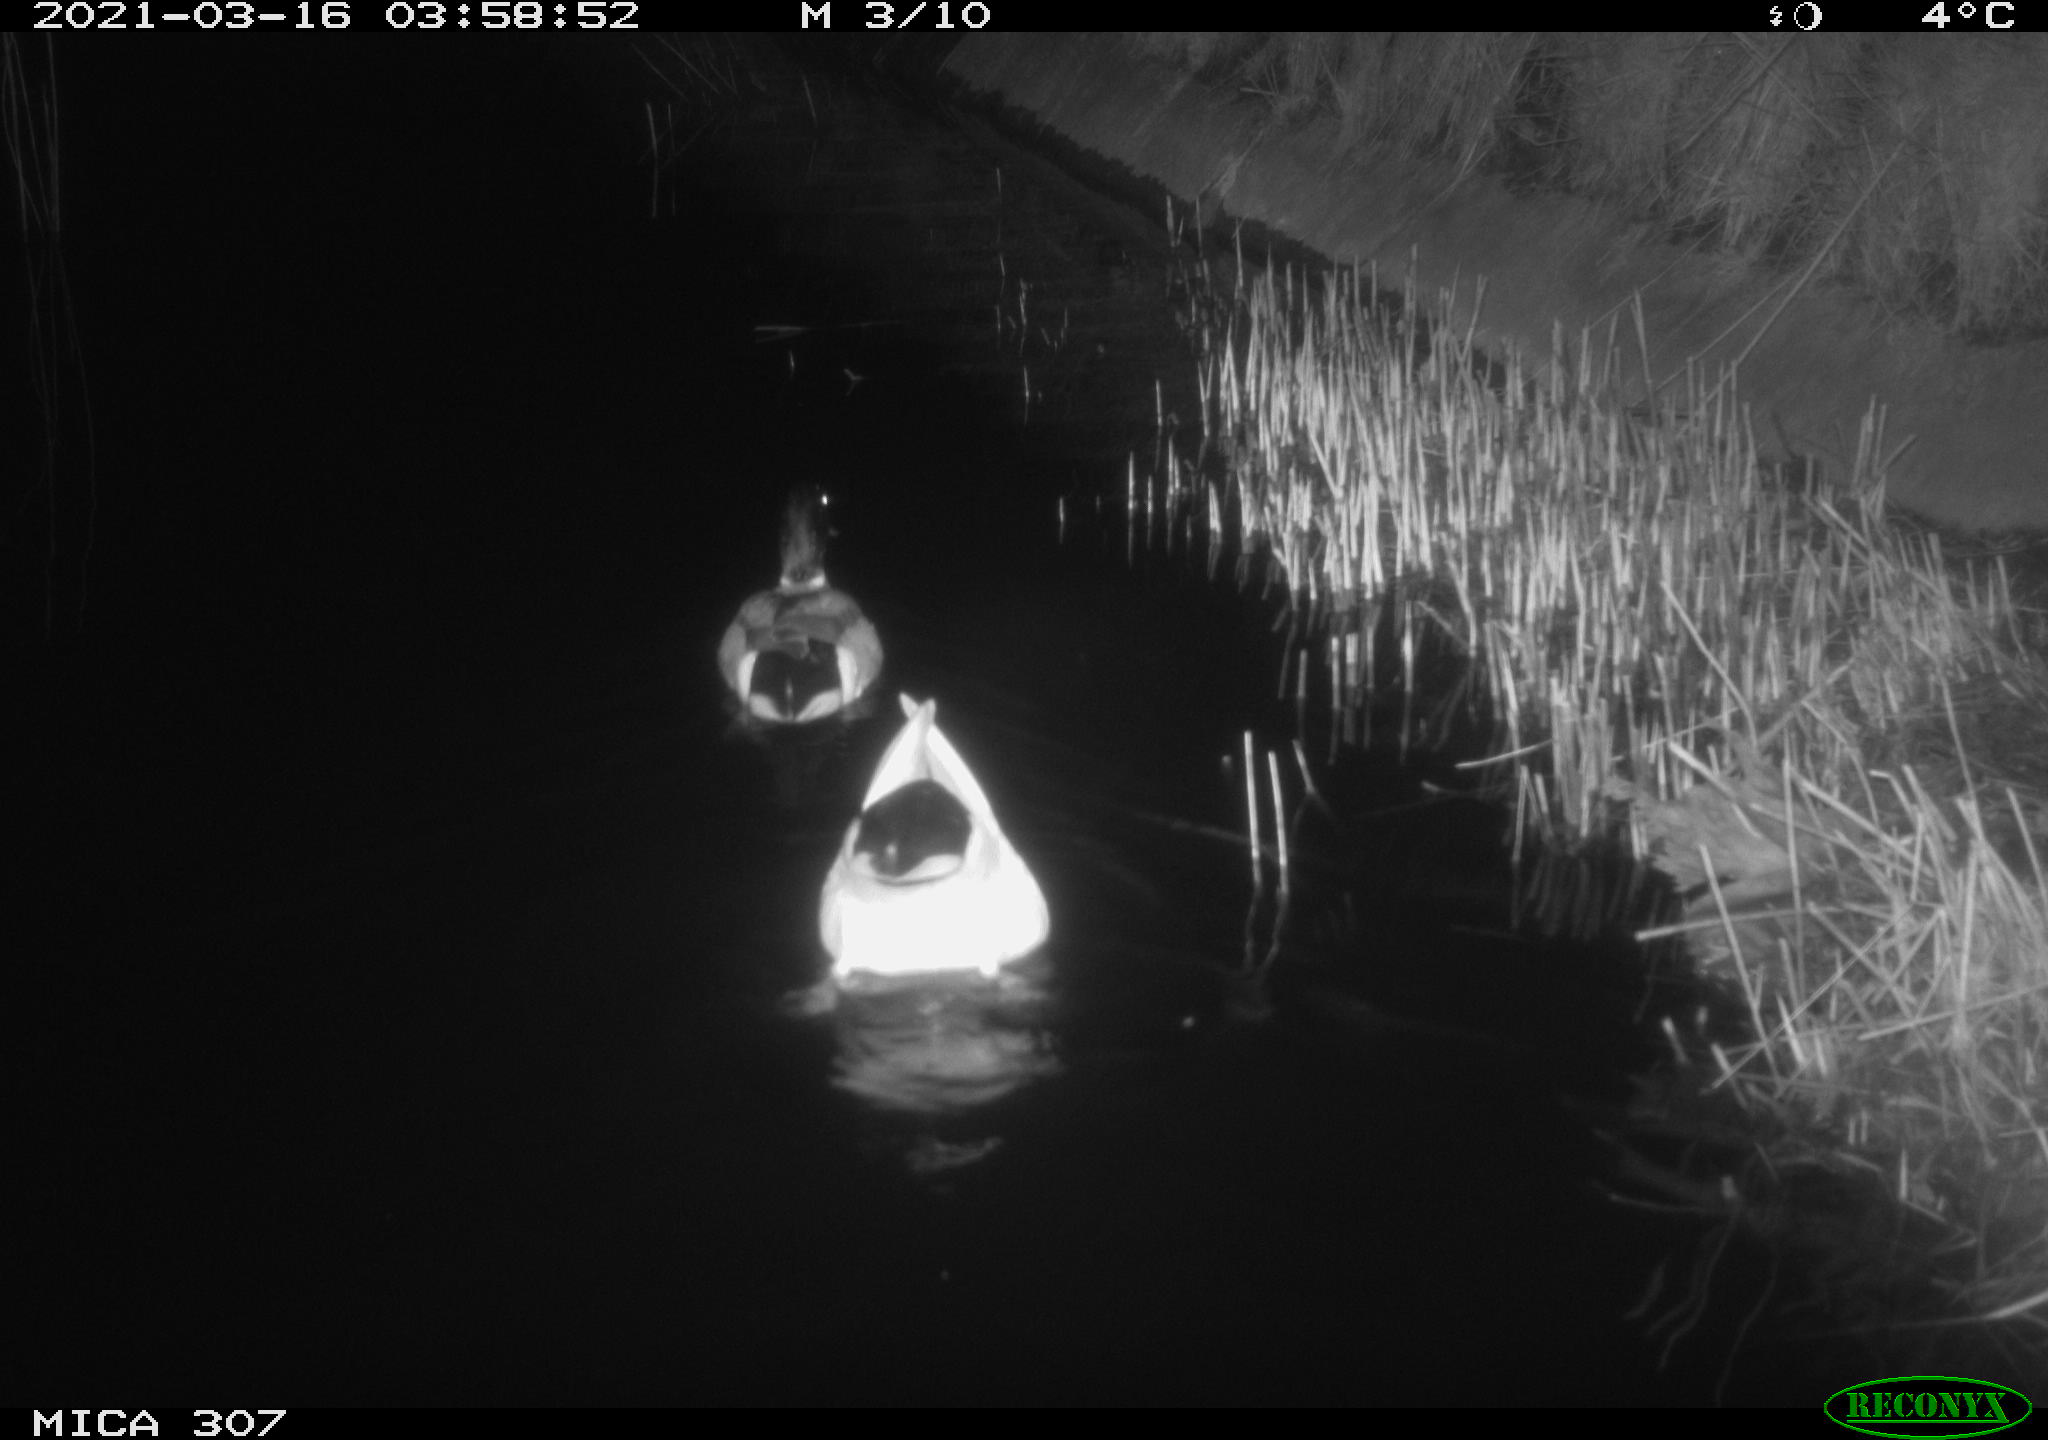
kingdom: Animalia
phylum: Chordata
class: Aves
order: Anseriformes
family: Anatidae
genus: Anas
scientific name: Anas platyrhynchos
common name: Mallard
